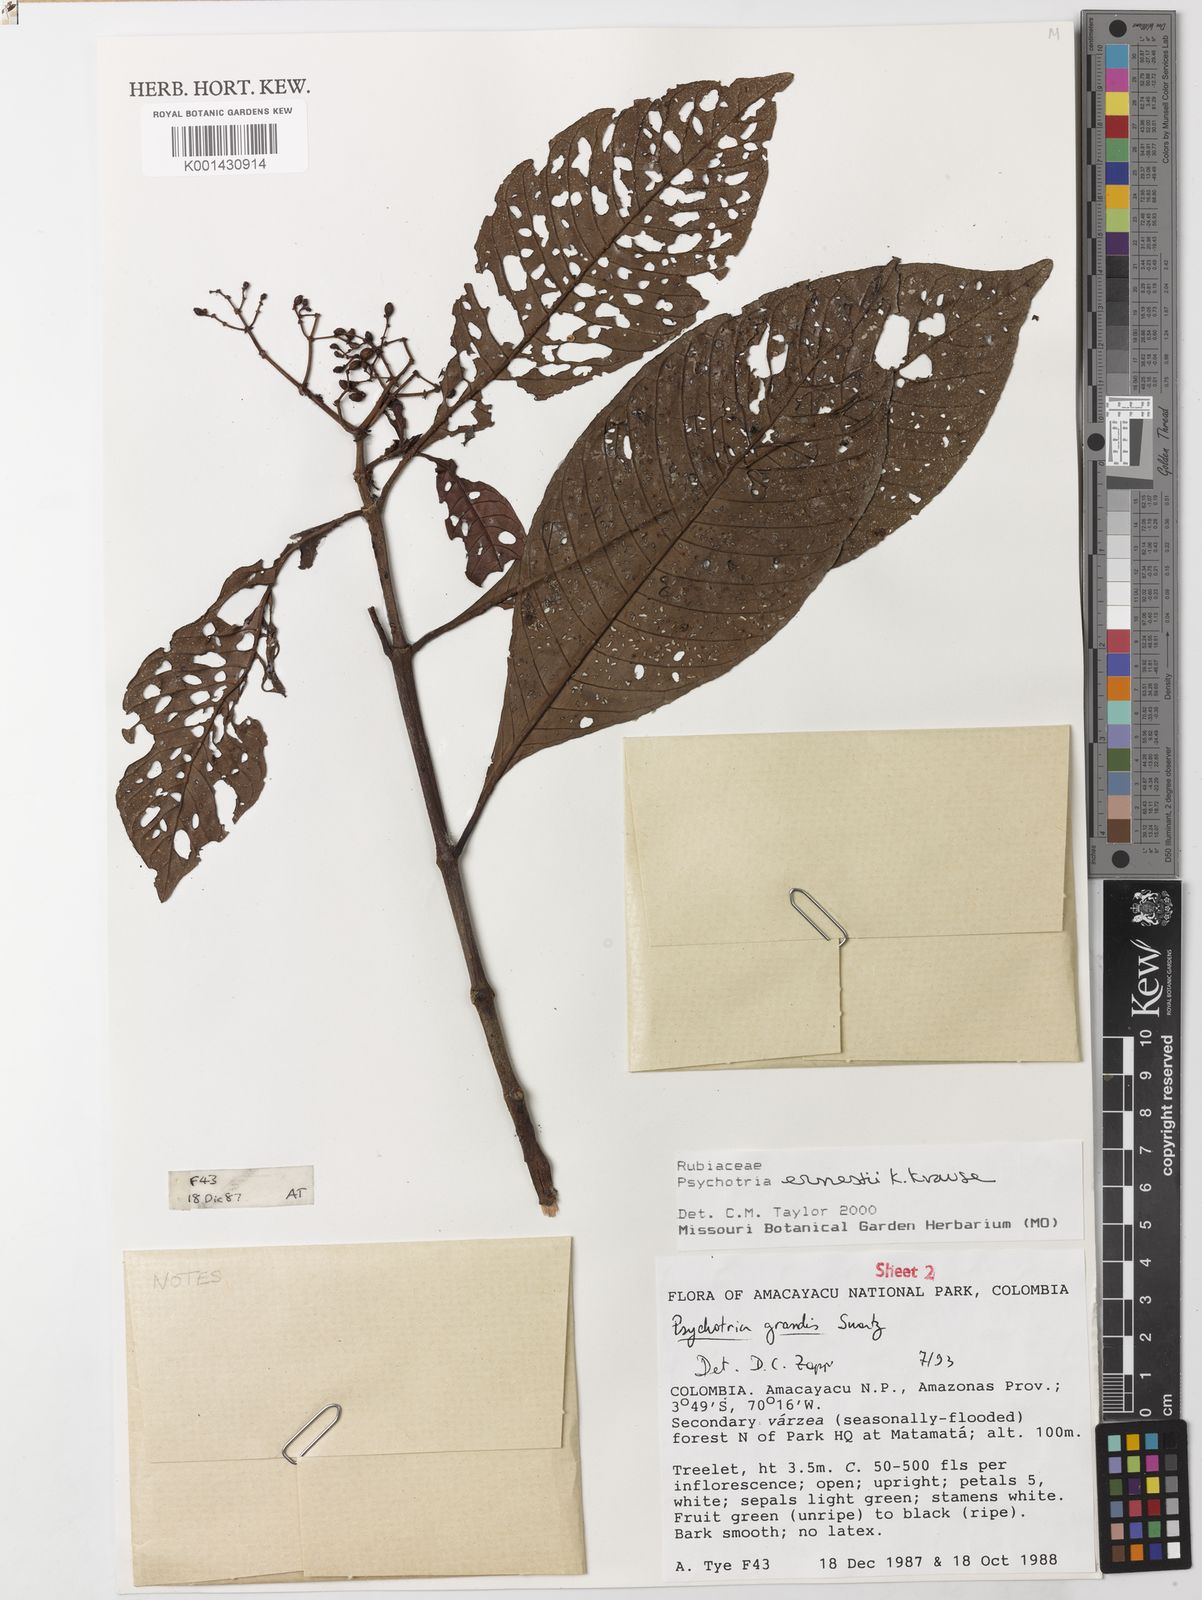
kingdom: Plantae
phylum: Tracheophyta
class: Magnoliopsida
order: Gentianales
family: Rubiaceae
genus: Psychotria
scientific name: Psychotria guianensis
